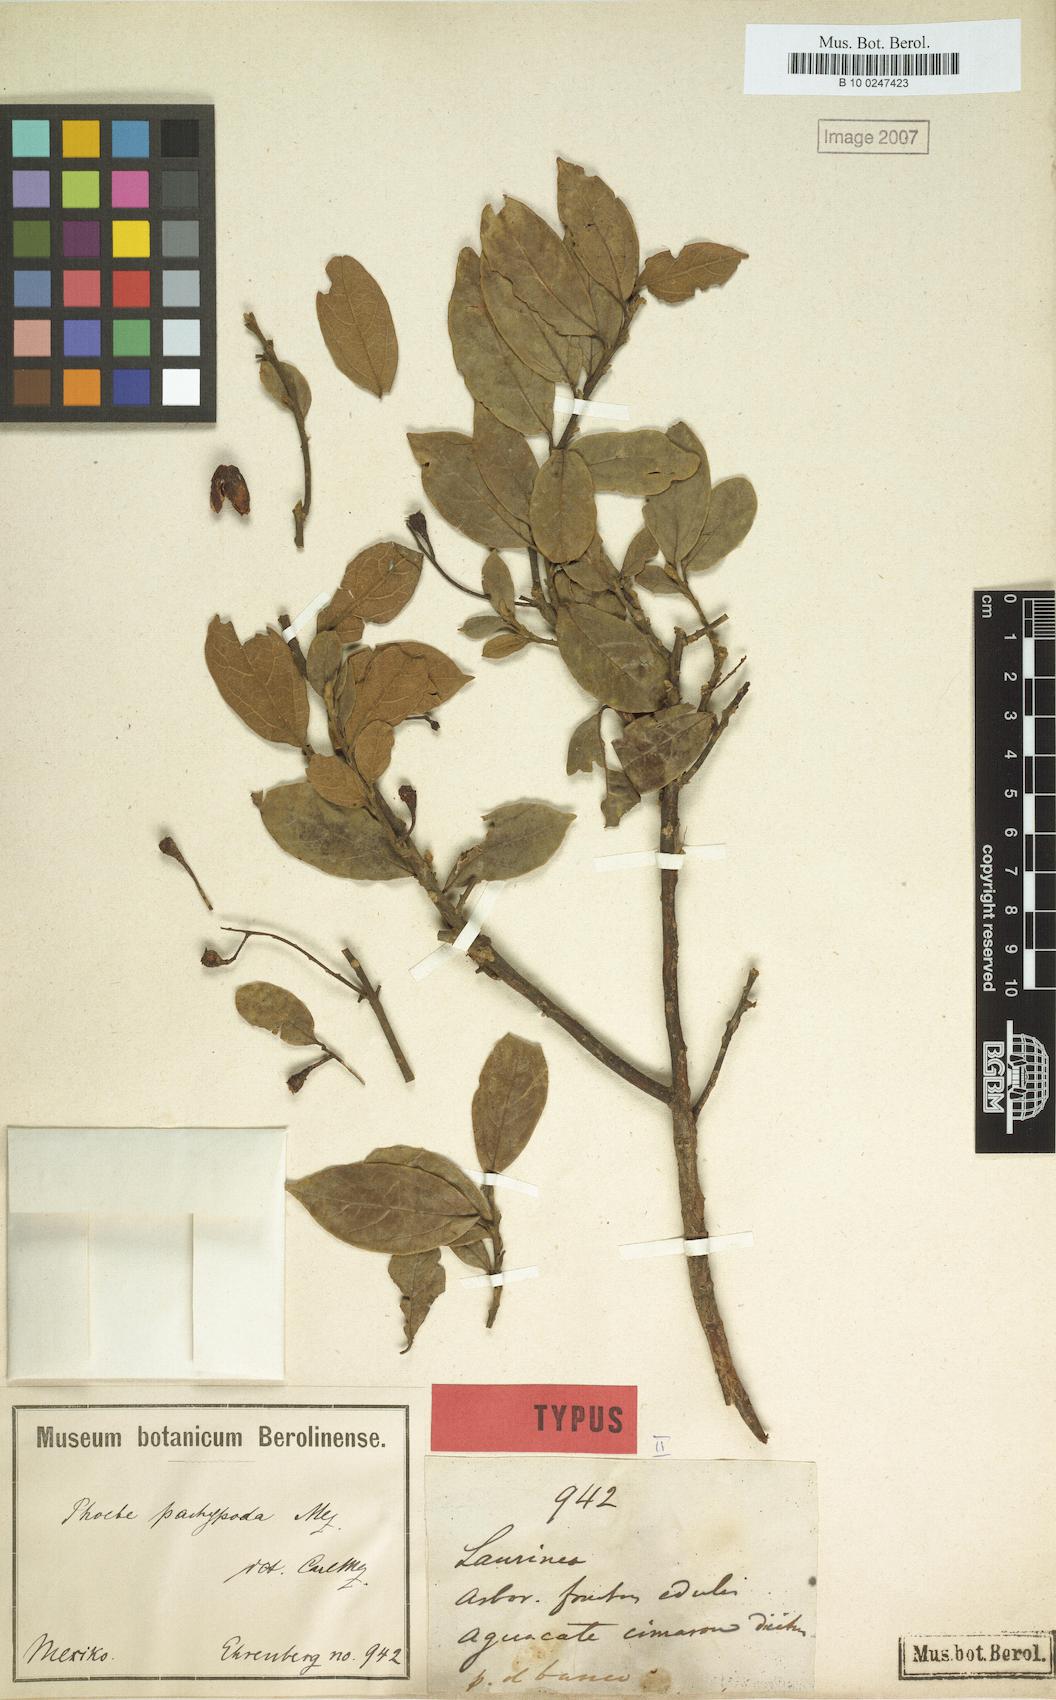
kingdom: Plantae
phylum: Tracheophyta
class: Magnoliopsida
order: Laurales
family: Lauraceae
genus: Aiouea
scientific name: Aiouea pachypoda
